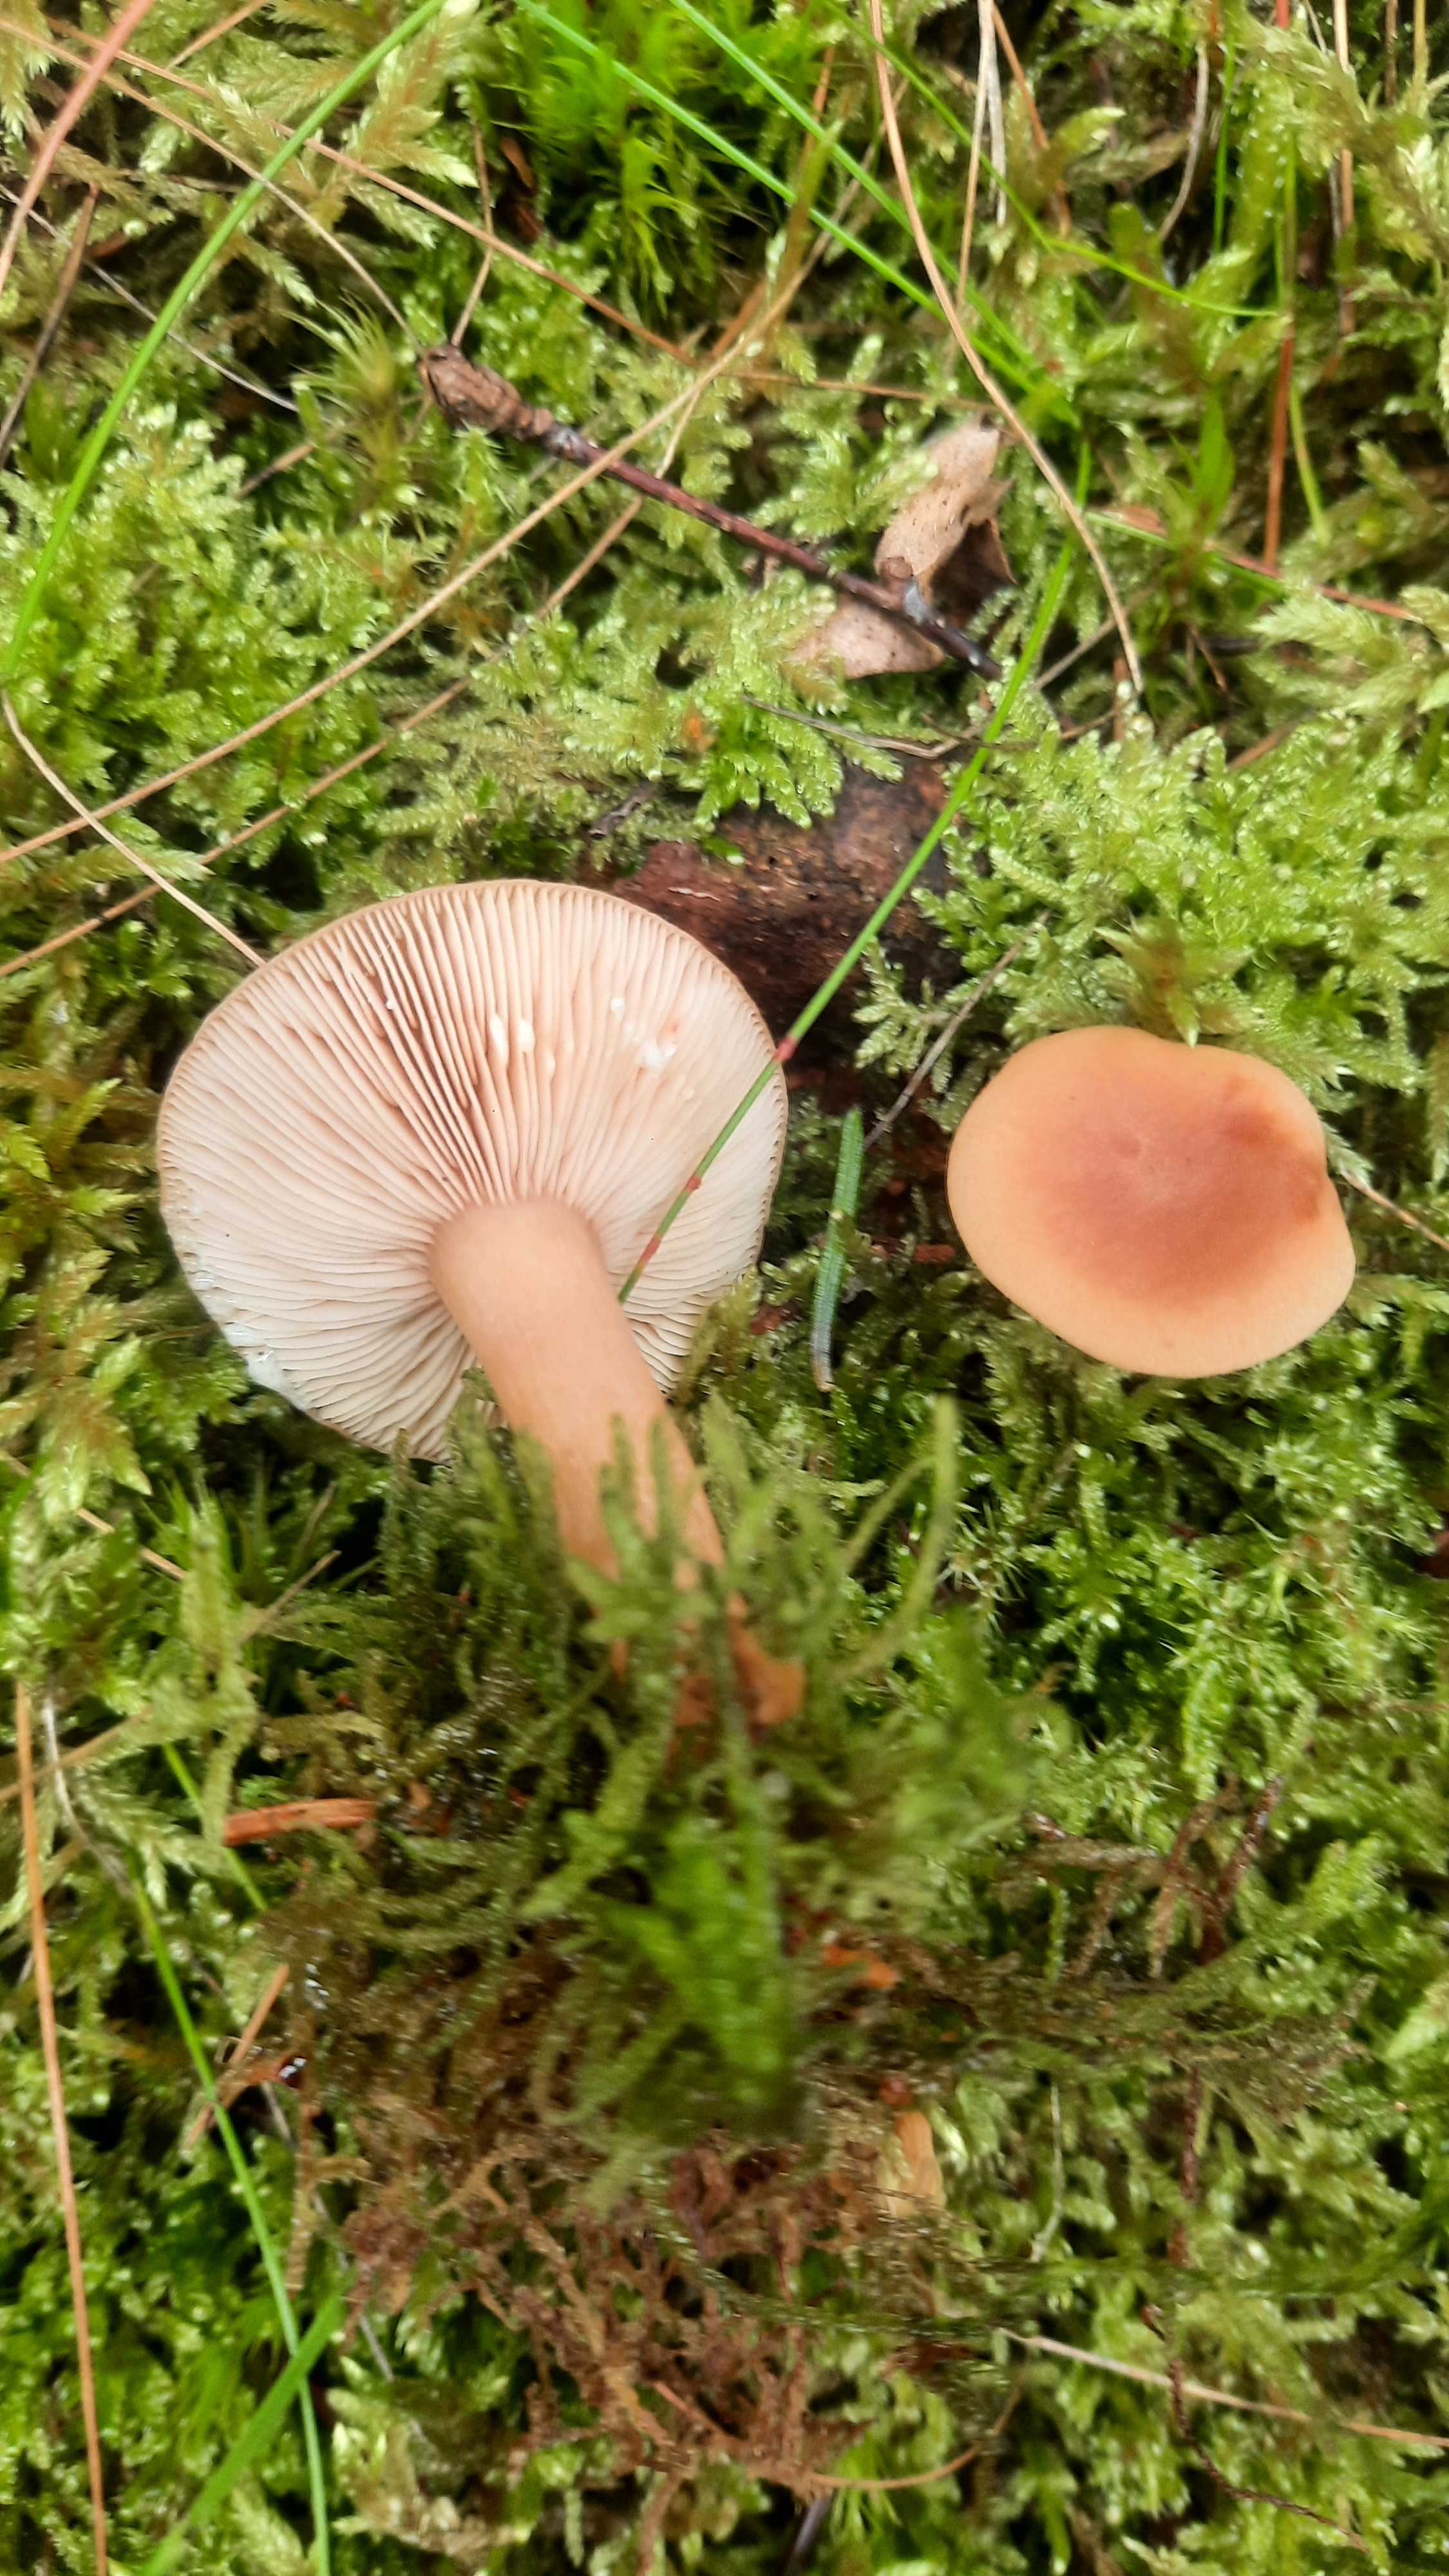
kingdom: Fungi
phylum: Basidiomycota
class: Agaricomycetes
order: Russulales
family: Russulaceae
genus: Lactarius
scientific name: Lactarius tabidus
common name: rynket mælkehat
